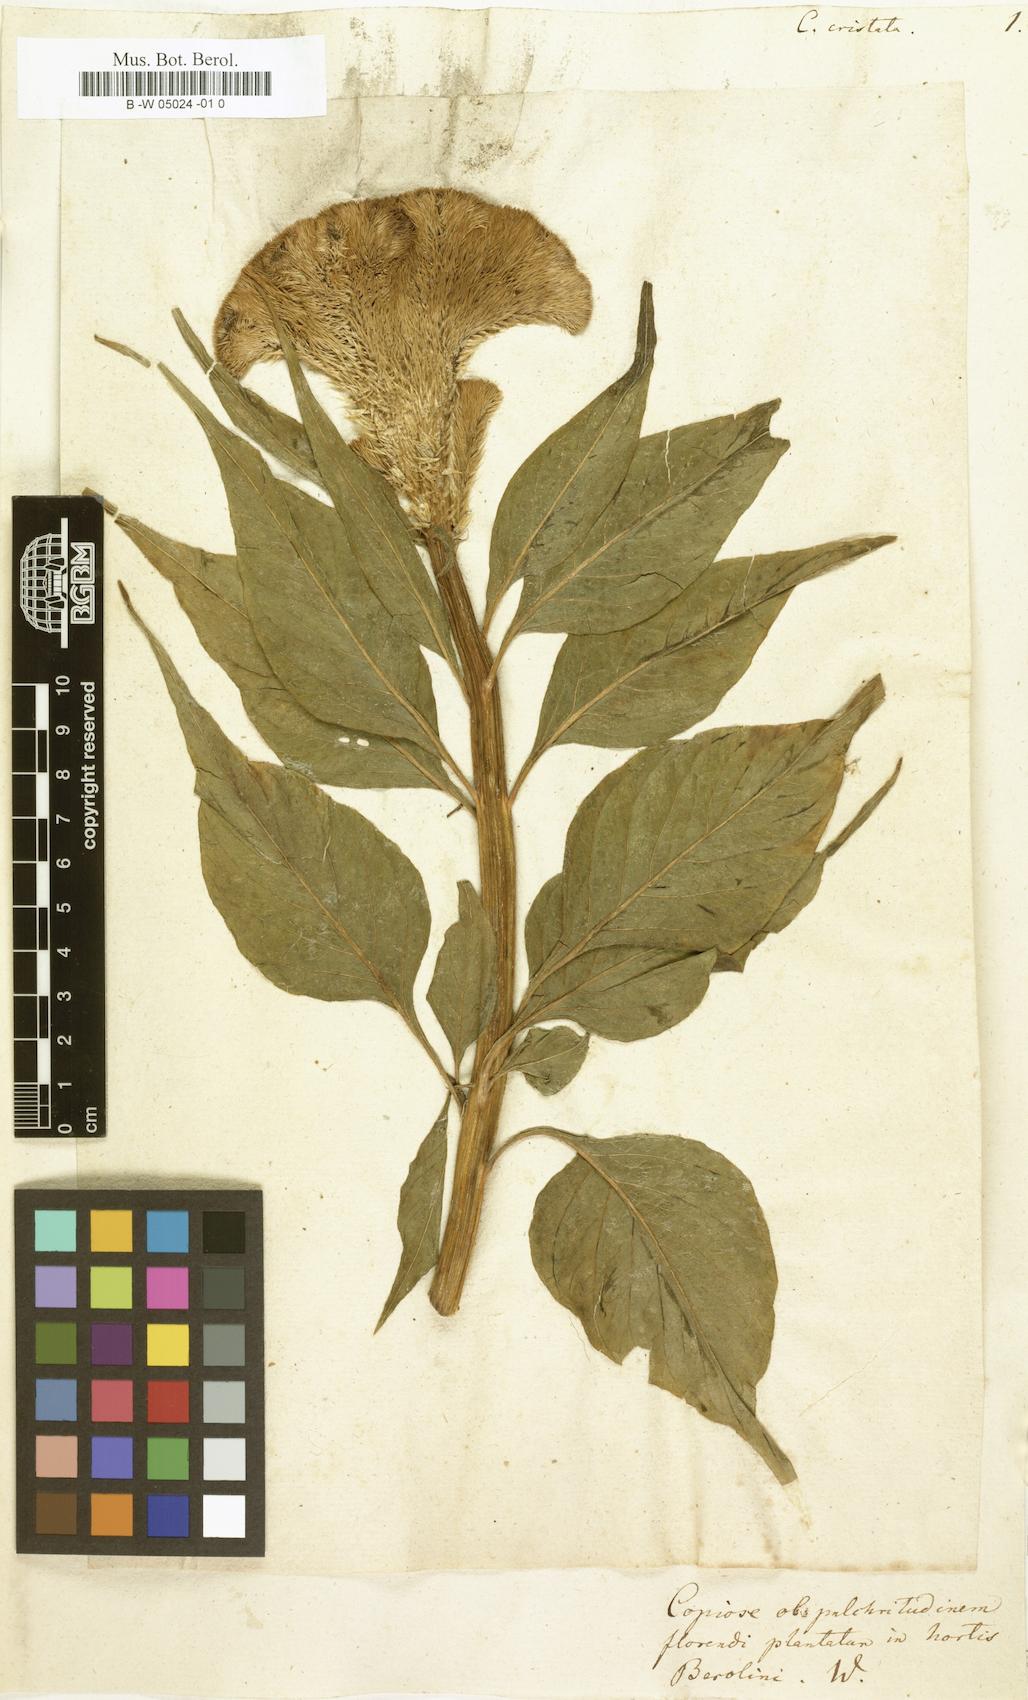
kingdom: Plantae
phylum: Tracheophyta
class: Magnoliopsida
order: Caryophyllales
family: Amaranthaceae
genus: Celosia
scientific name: Celosia argentea
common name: Feather cockscomb
